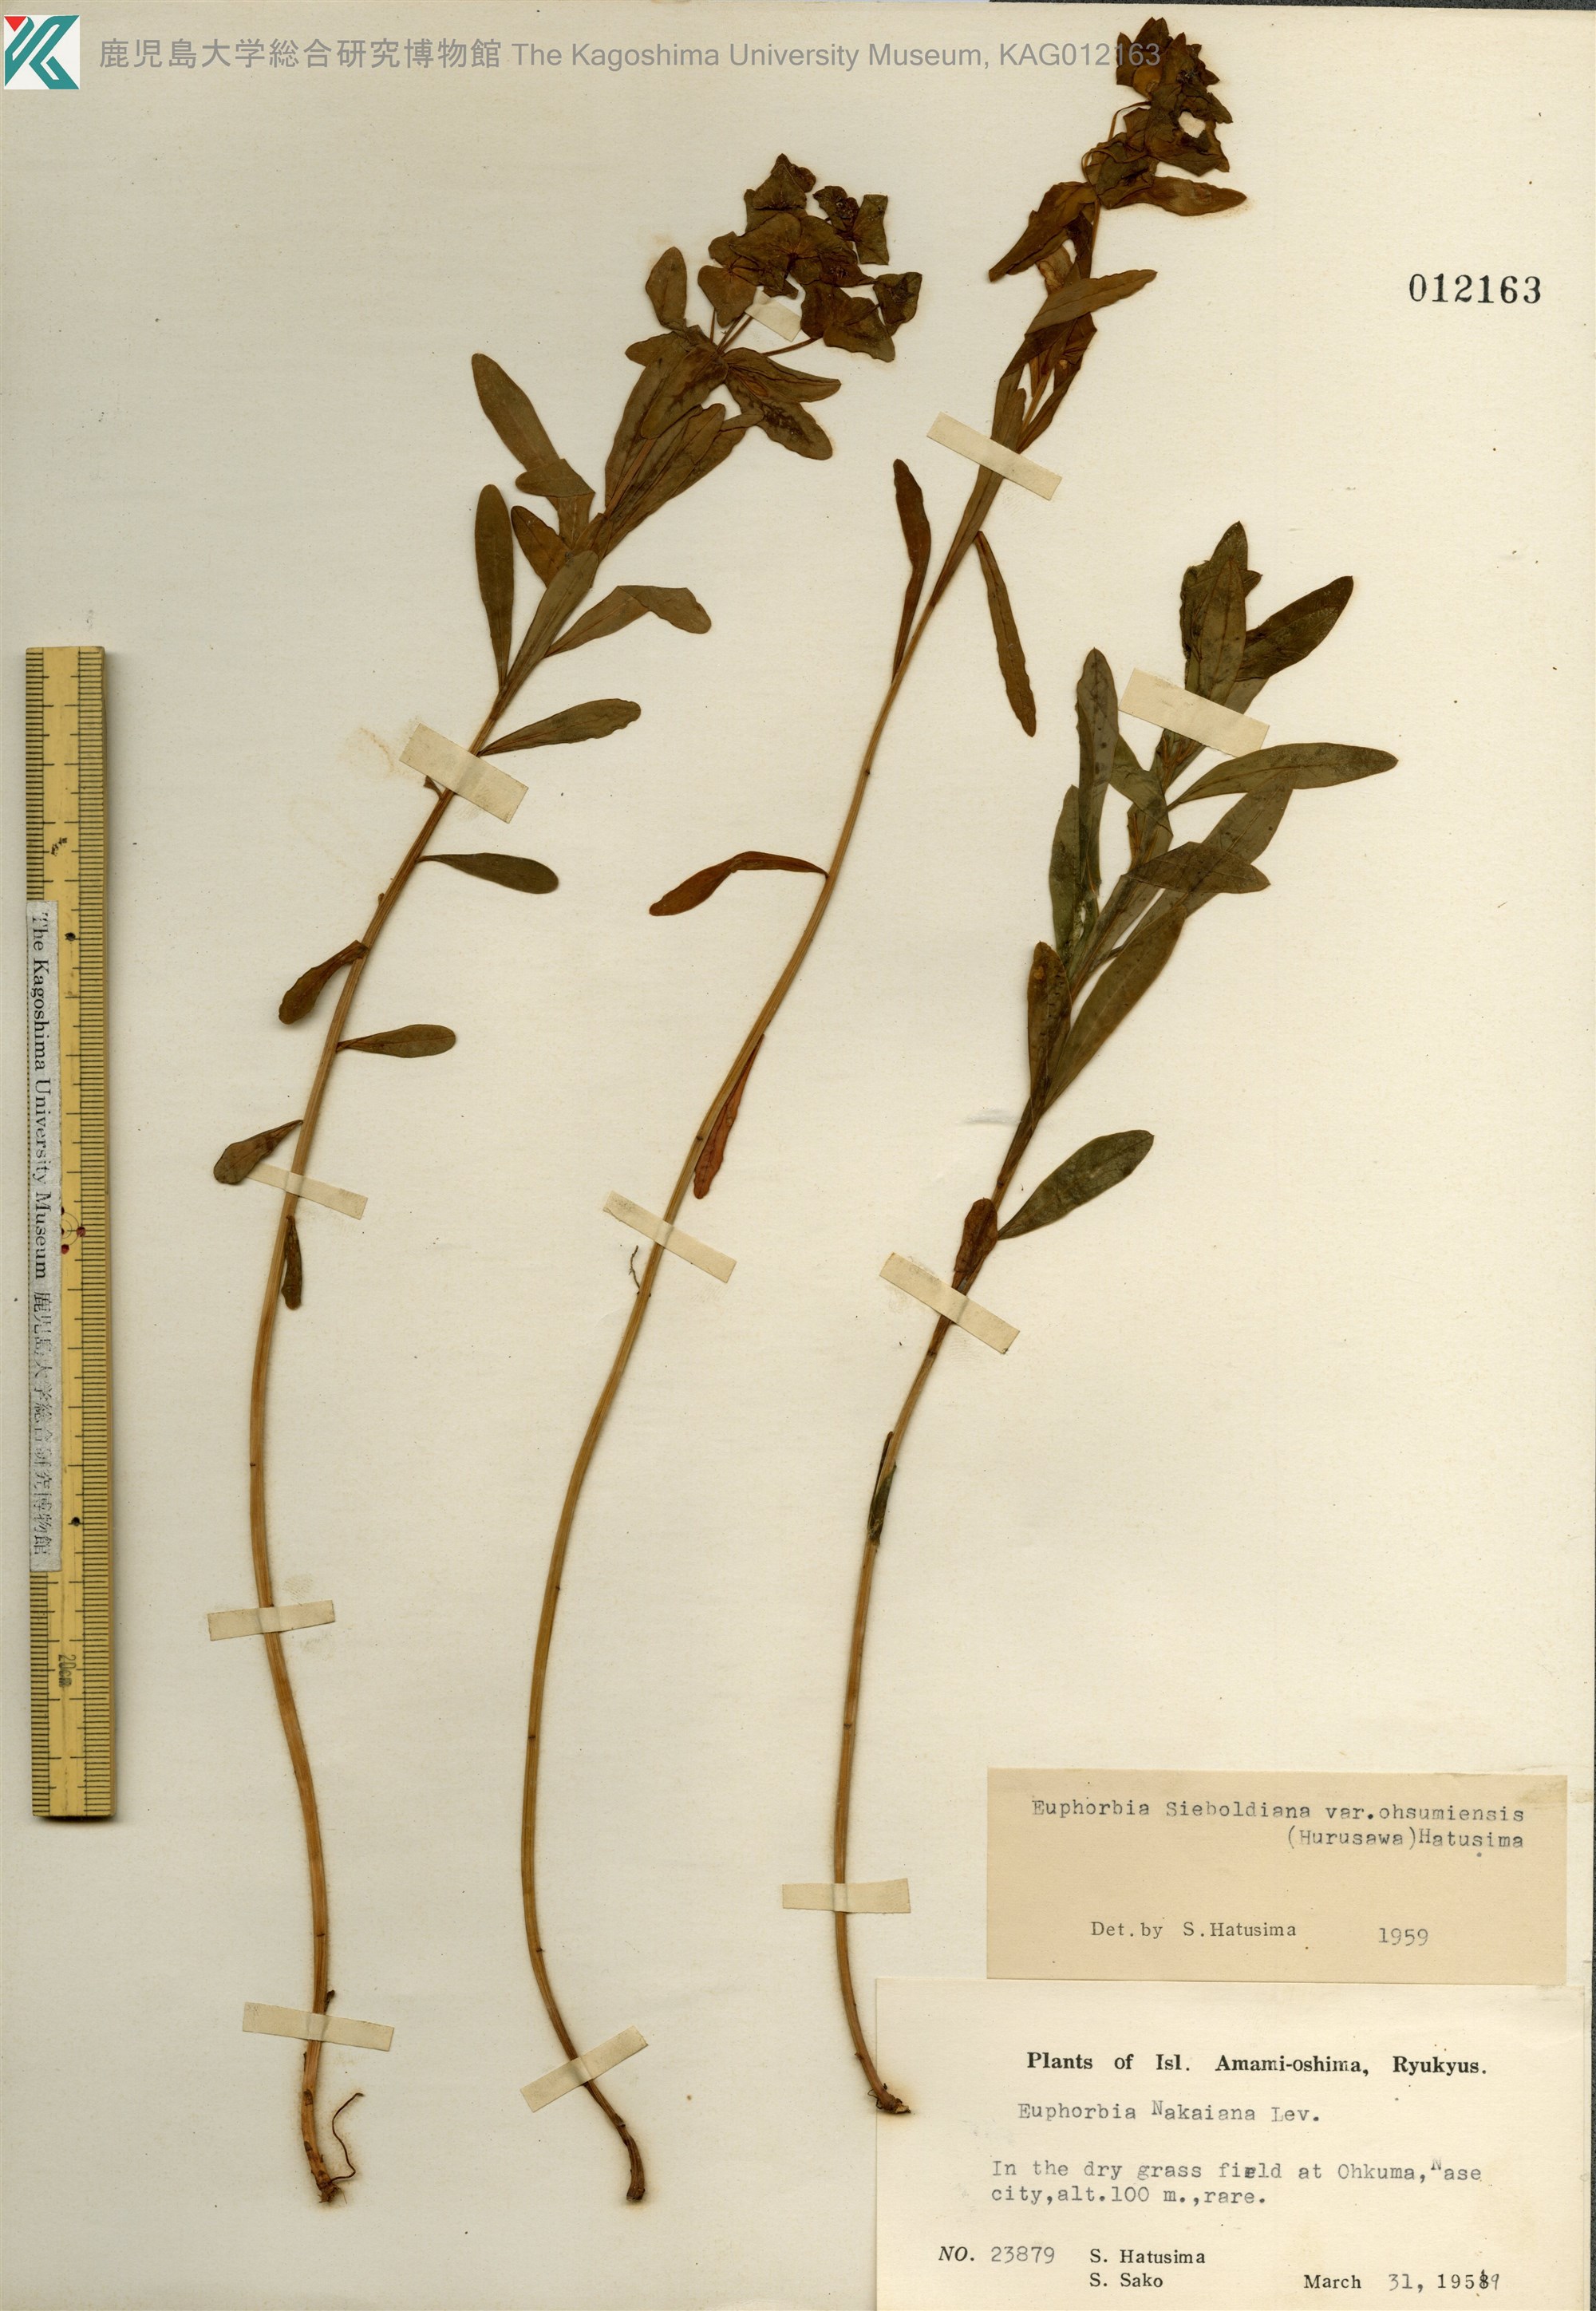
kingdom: Plantae
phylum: Tracheophyta
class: Magnoliopsida
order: Malpighiales
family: Euphorbiaceae
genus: Euphorbia
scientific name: Euphorbia sieboldiana
